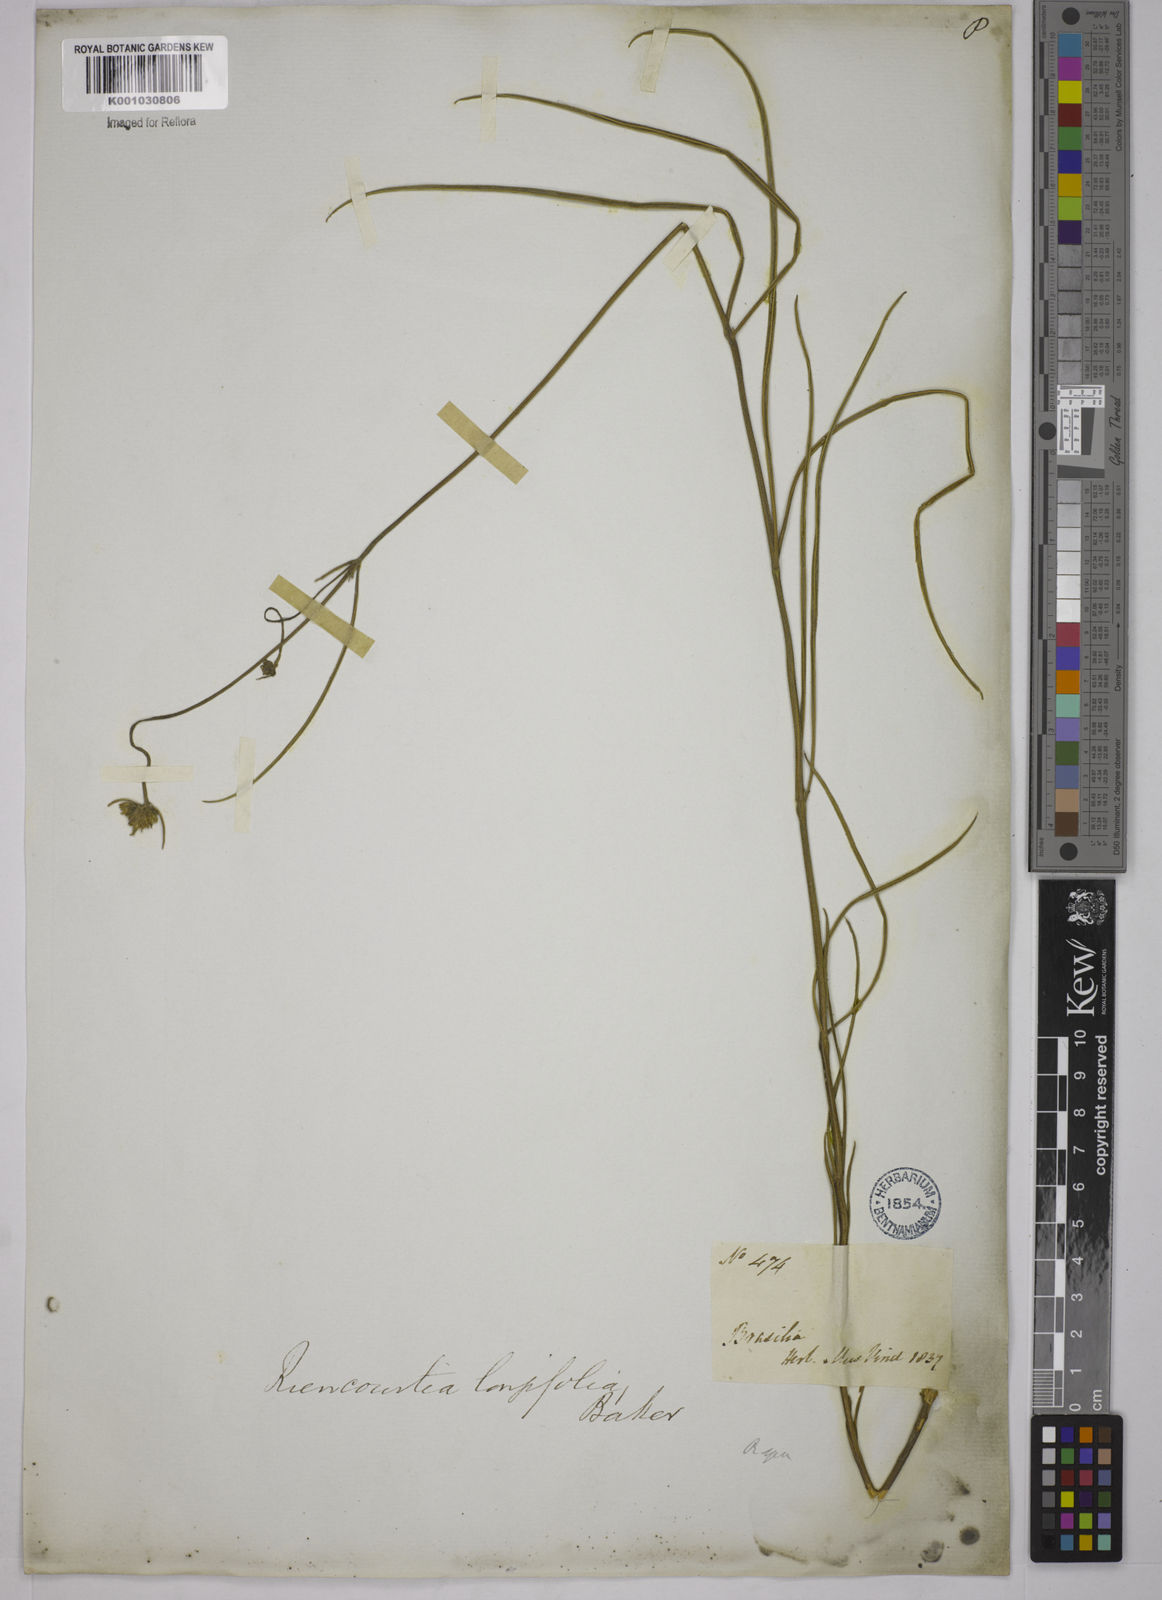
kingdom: Plantae
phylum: Tracheophyta
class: Magnoliopsida
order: Asterales
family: Asteraceae
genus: Riencourtia
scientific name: Riencourtia longifolia
